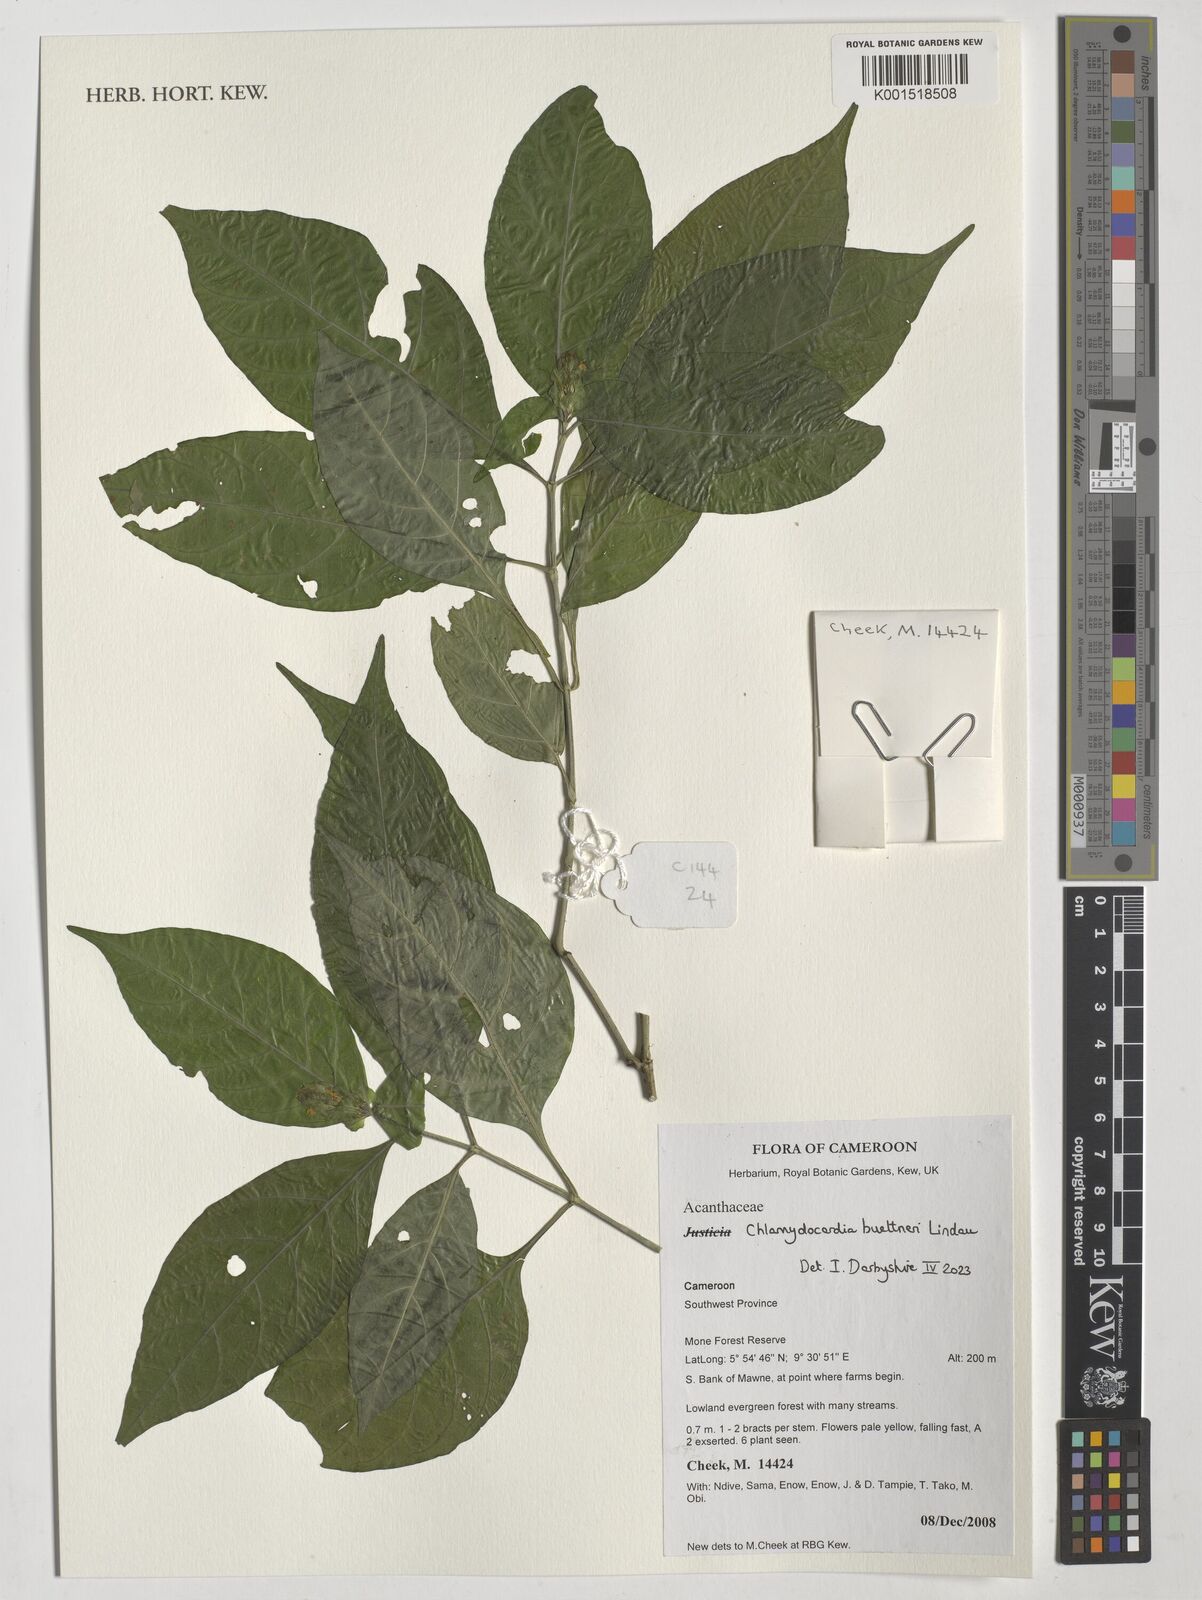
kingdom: Plantae
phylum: Tracheophyta
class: Magnoliopsida
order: Lamiales
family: Acanthaceae
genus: Chlamydocardia
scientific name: Chlamydocardia buettneri
